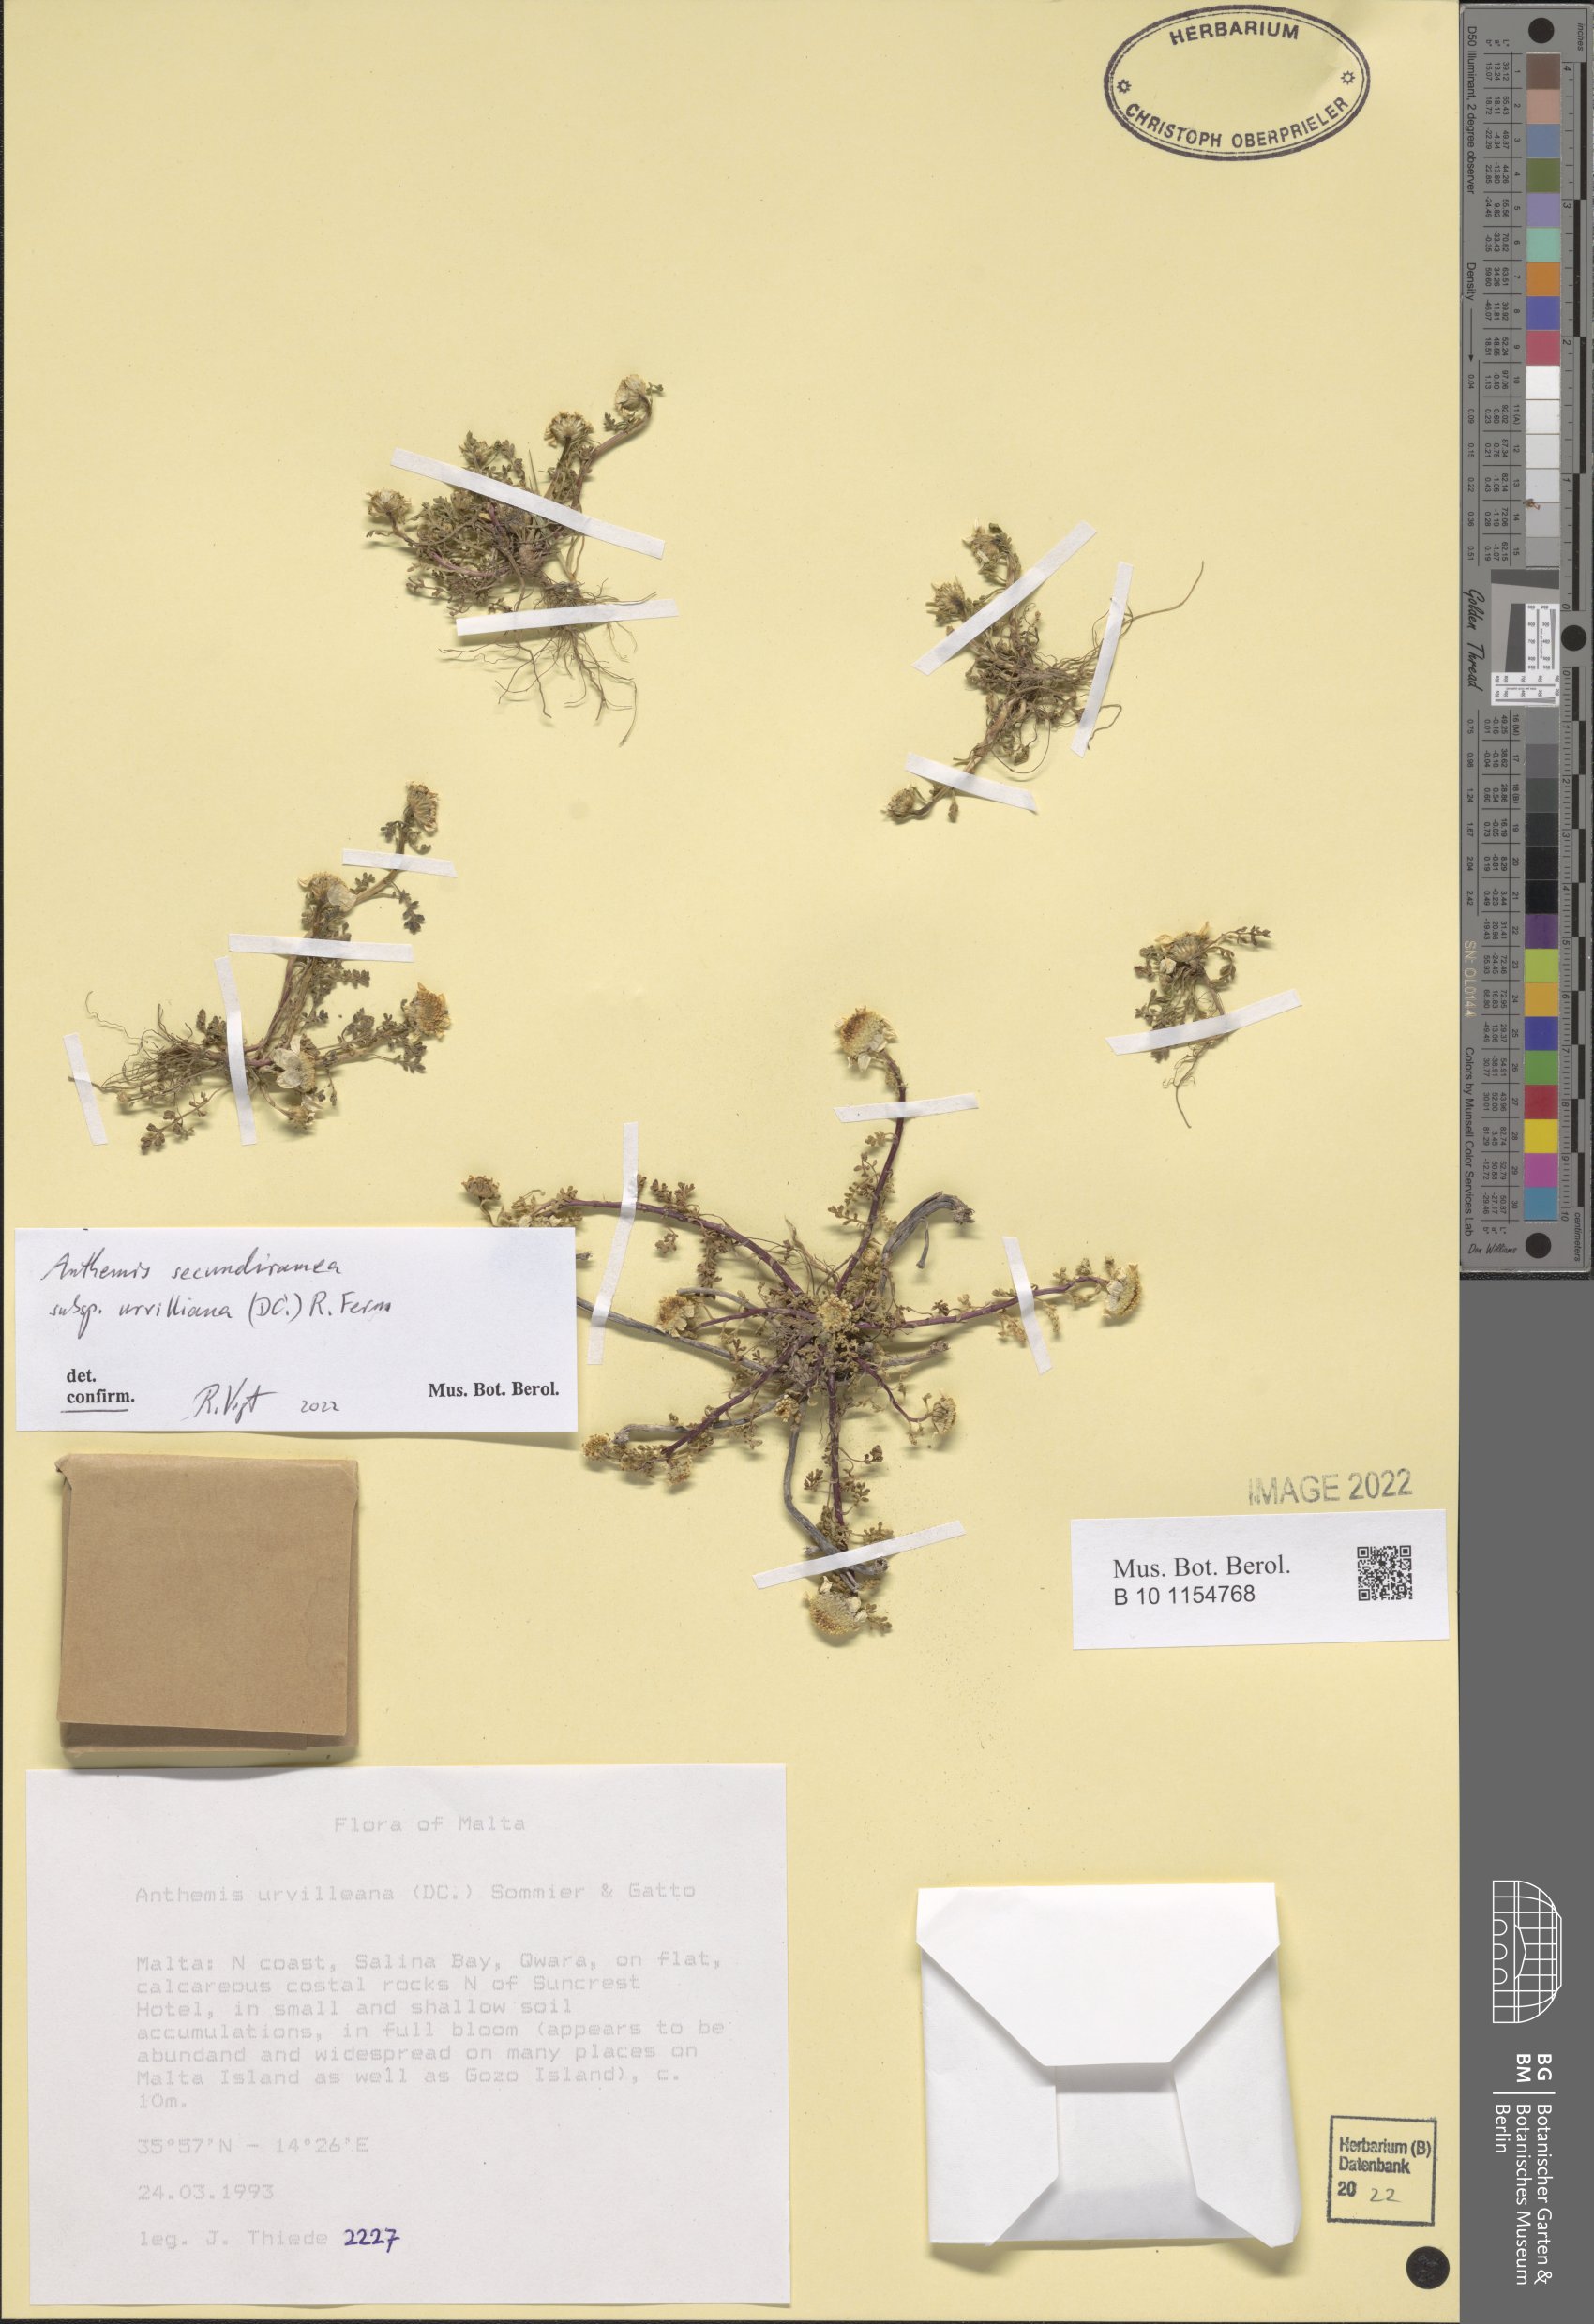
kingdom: Plantae
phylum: Tracheophyta
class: Magnoliopsida
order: Asterales
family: Asteraceae
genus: Anthemis
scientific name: Anthemis secundiramea
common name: Prostrate chamomile
